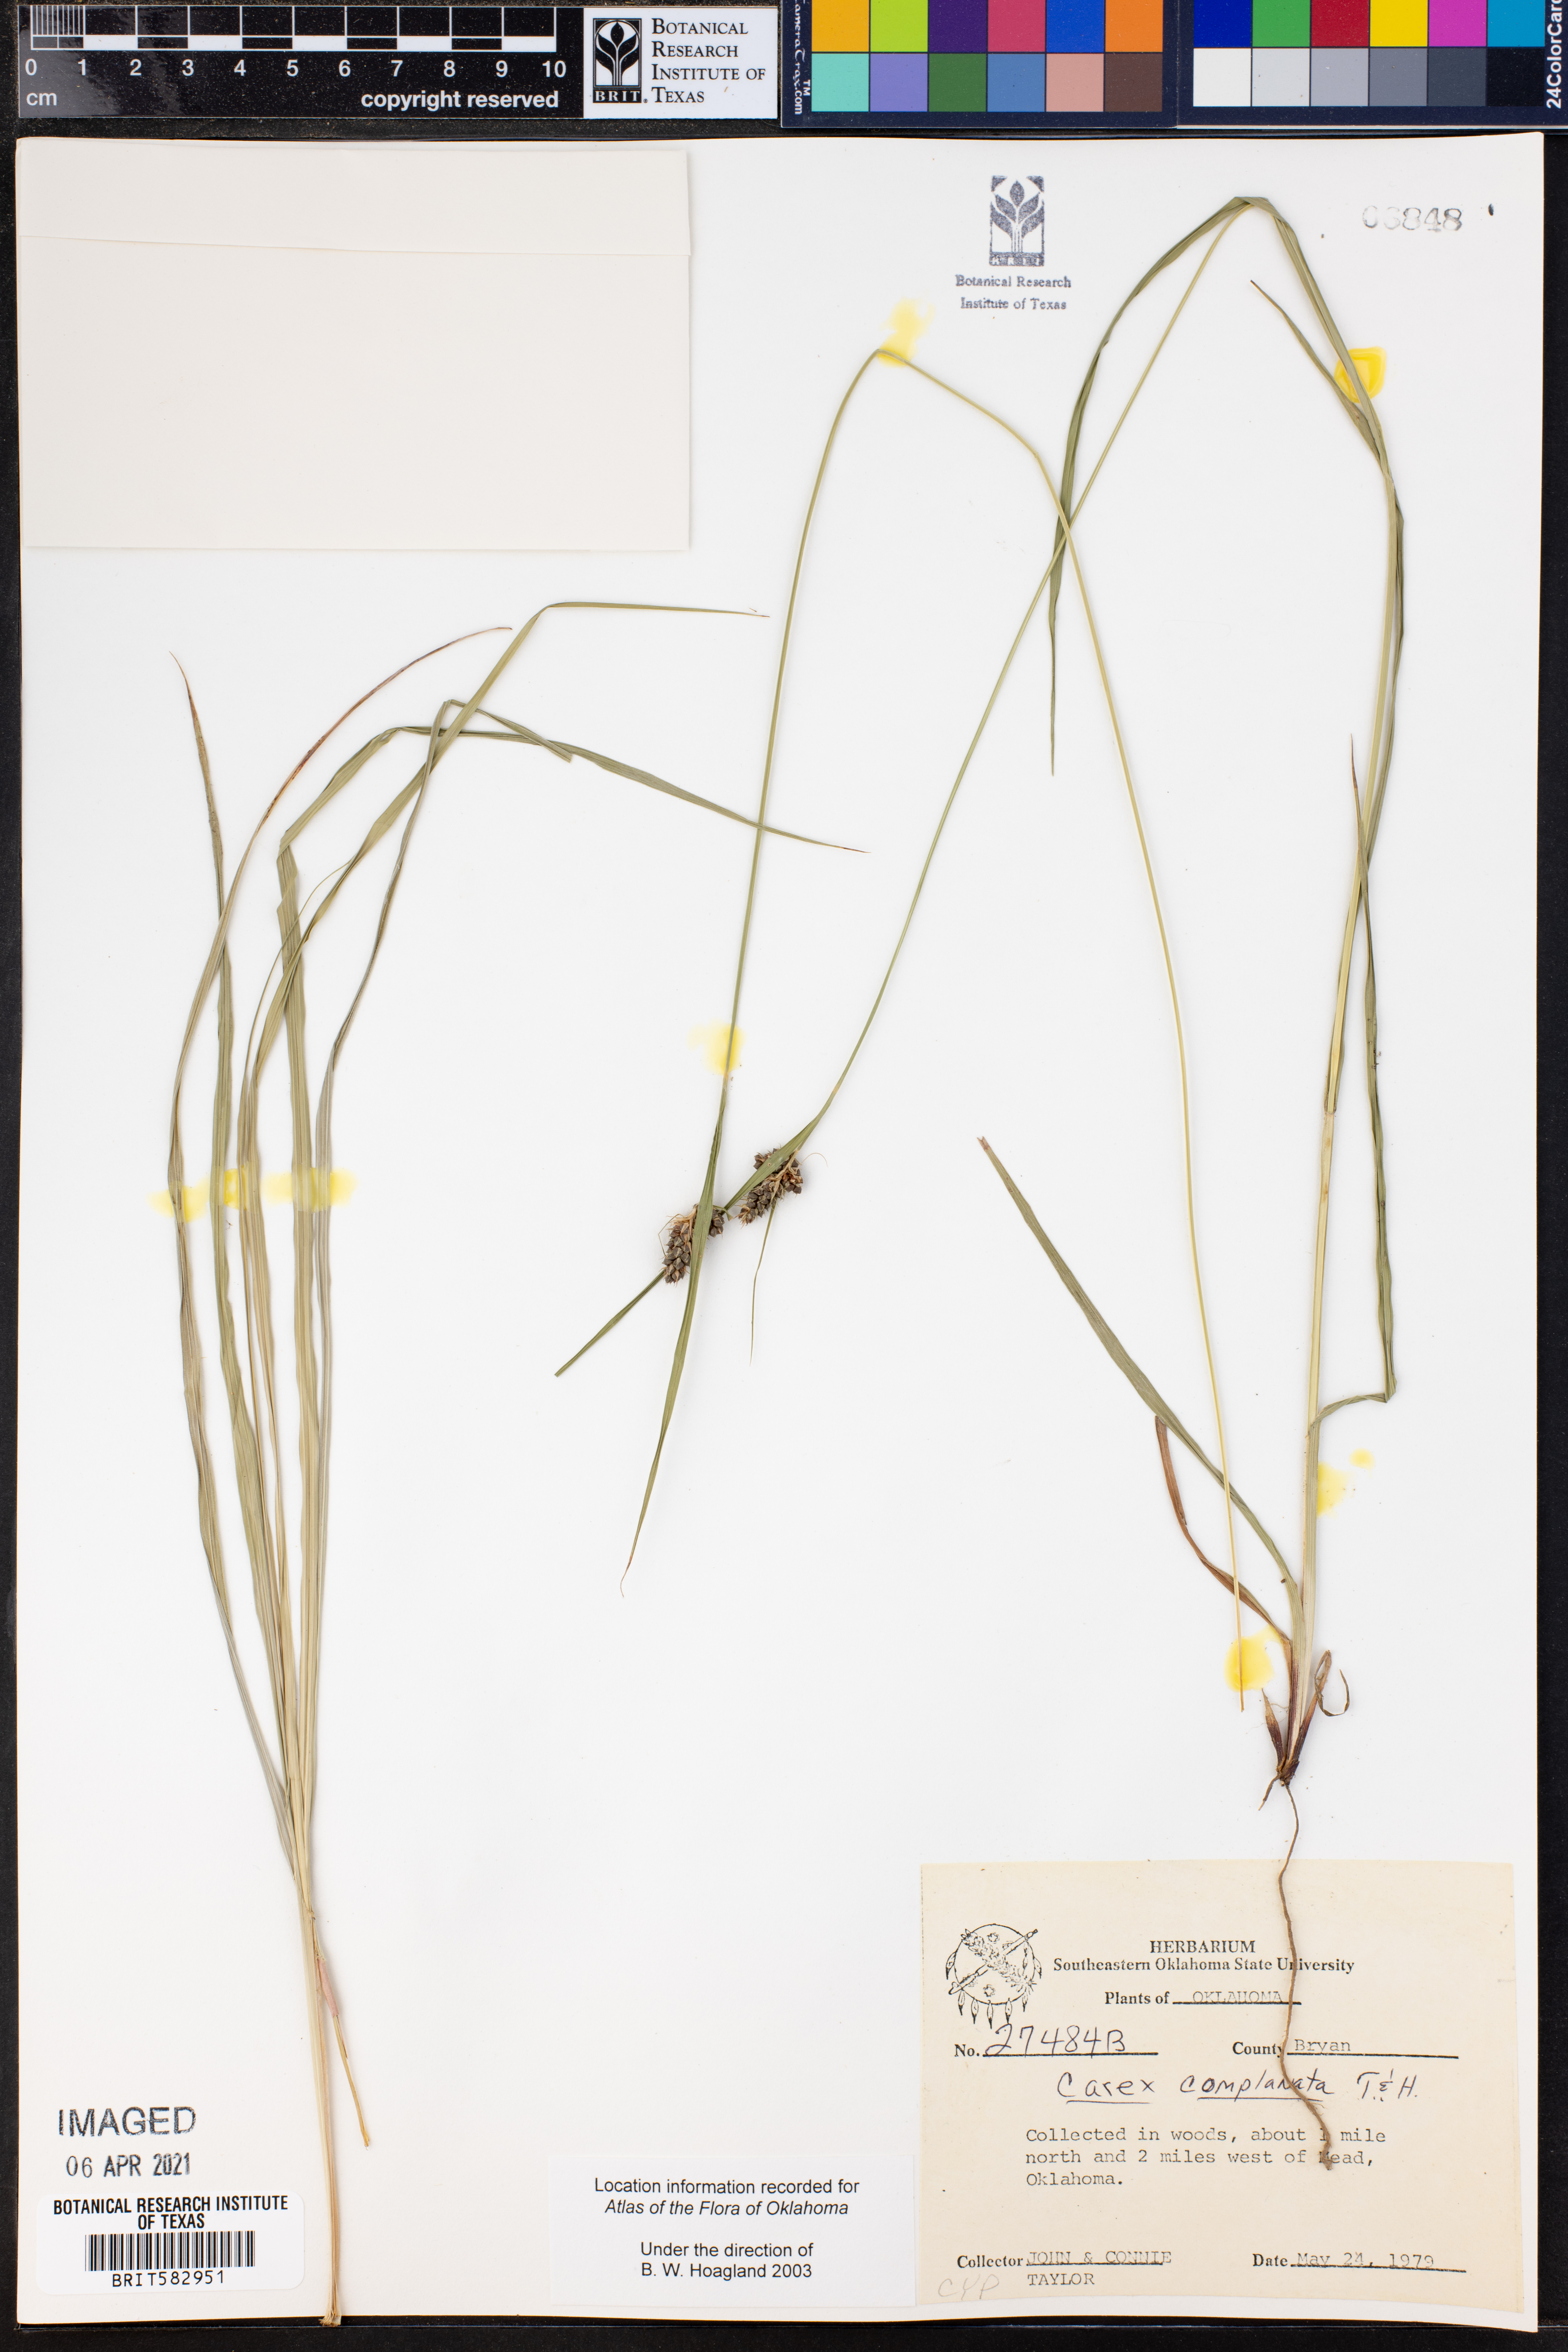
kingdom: Plantae
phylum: Tracheophyta
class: Liliopsida
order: Poales
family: Cyperaceae
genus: Carex
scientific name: Carex complanata
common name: Hirsute sedge
